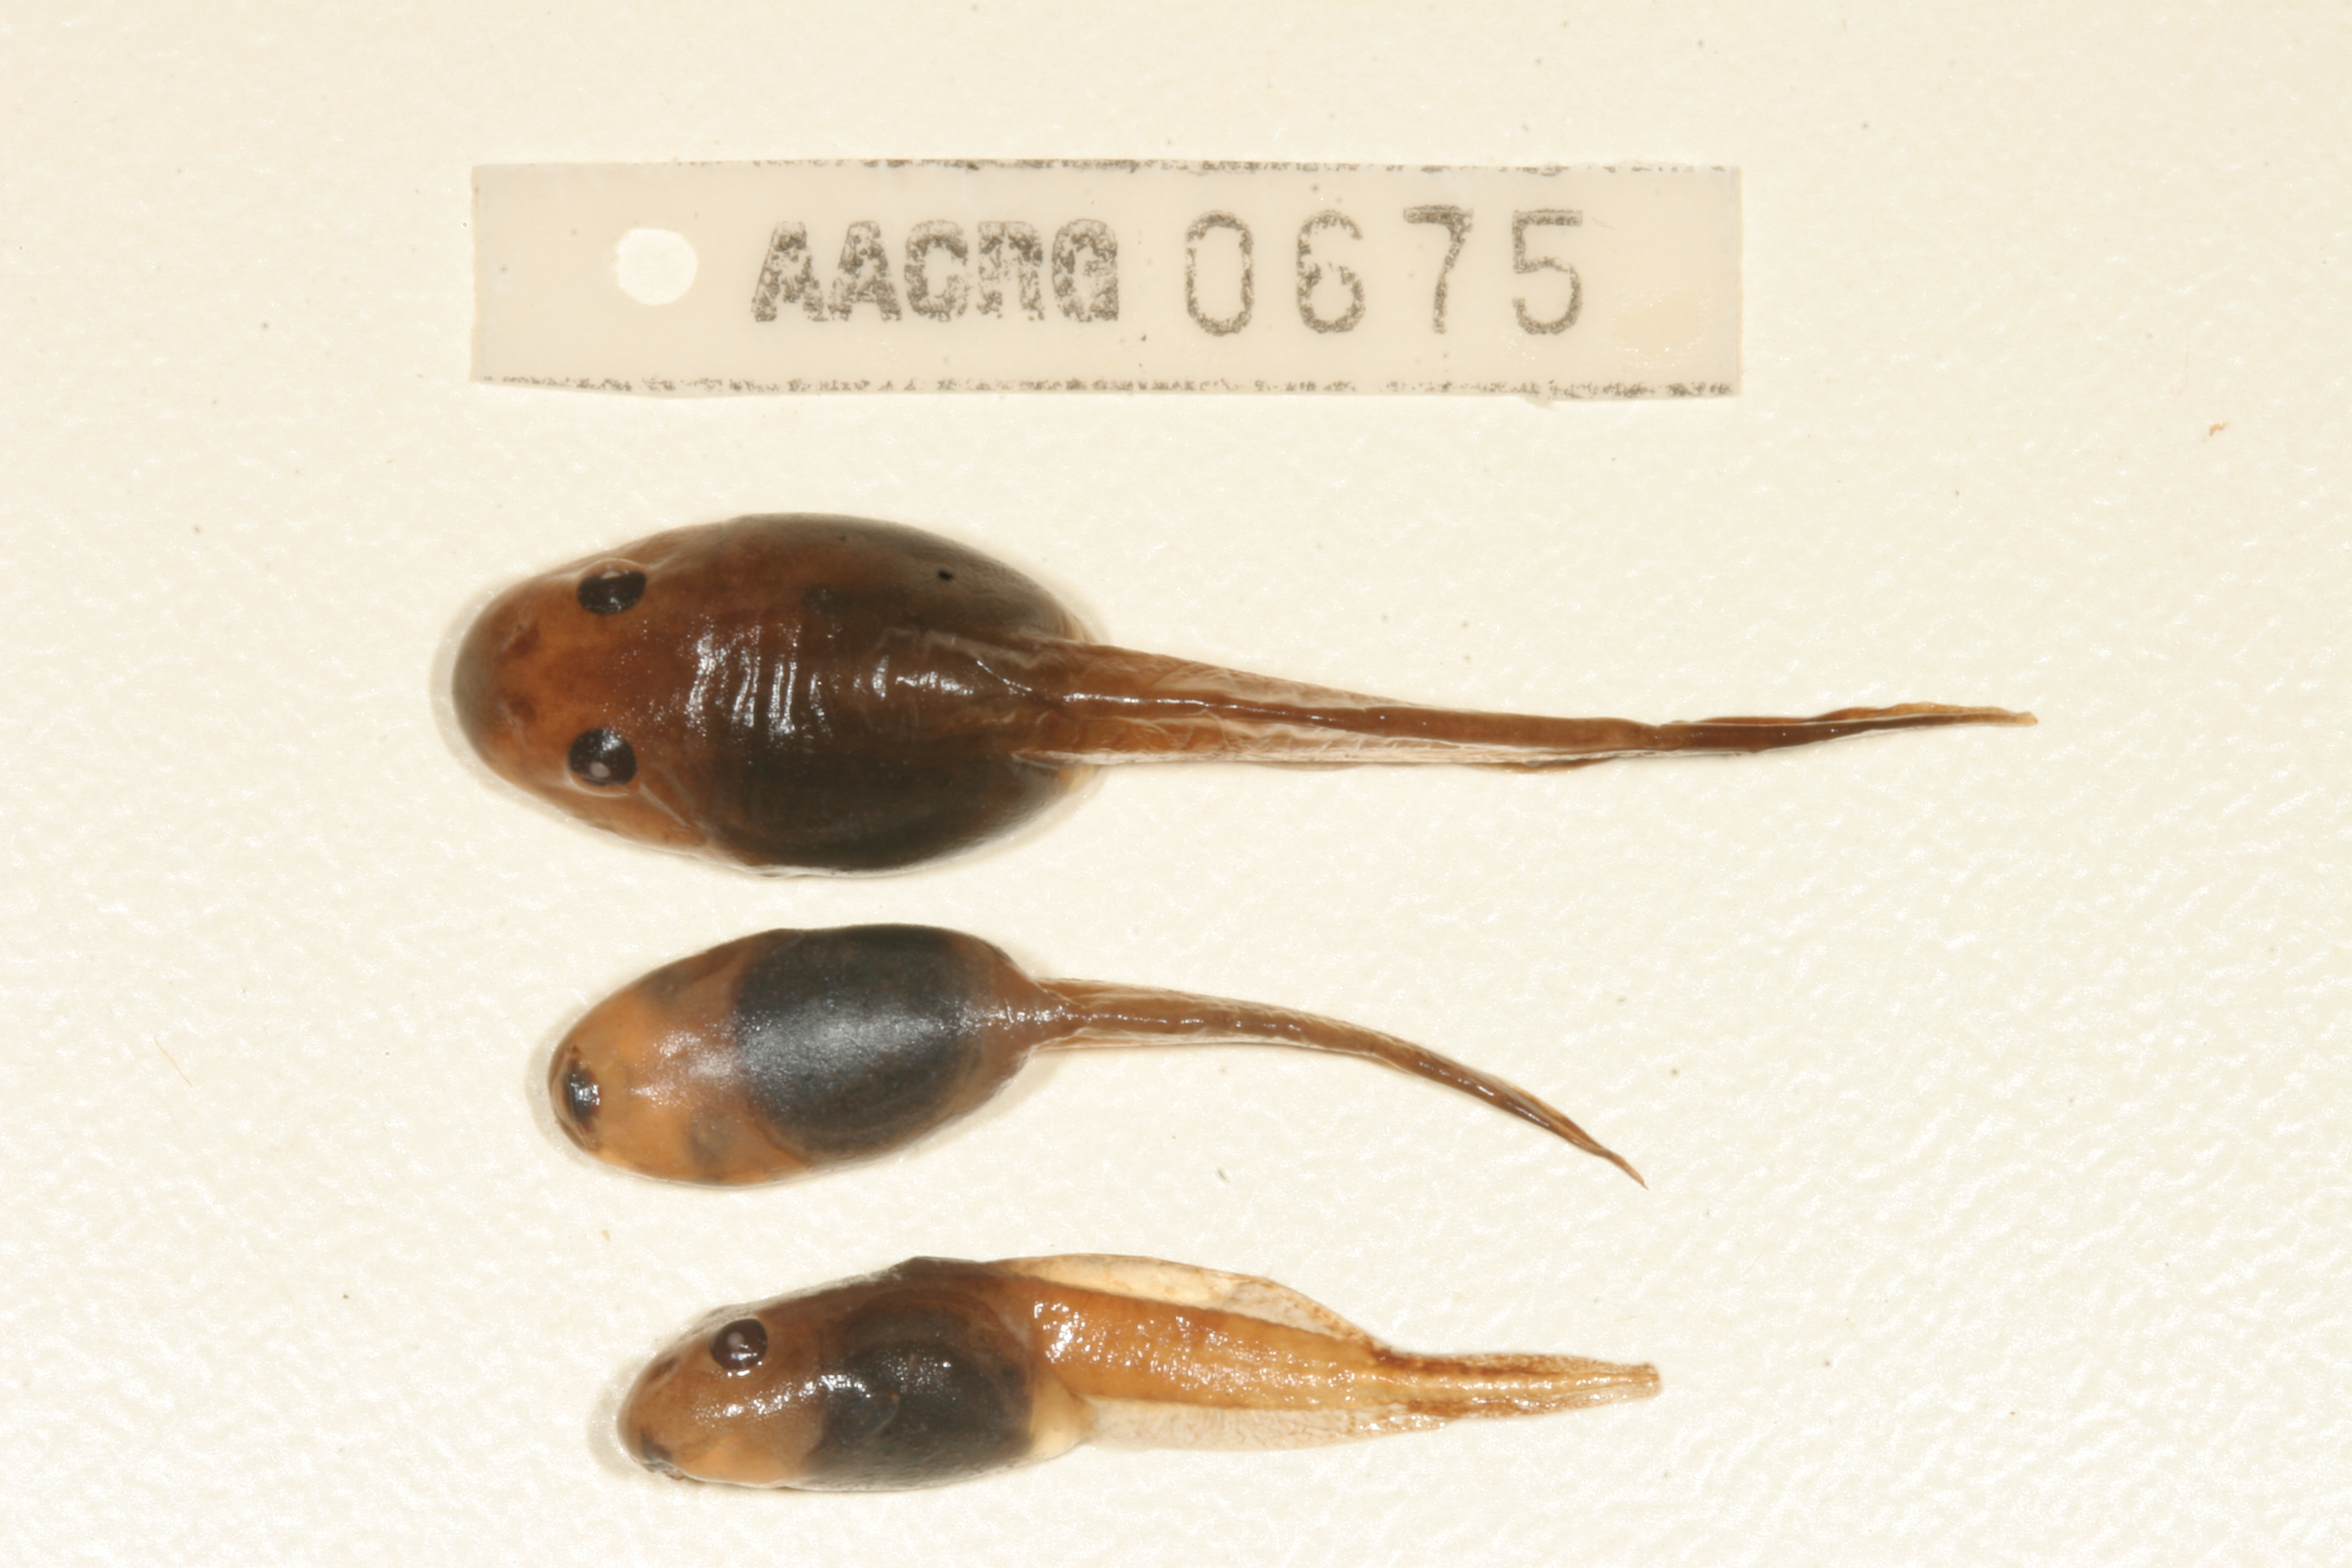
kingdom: Animalia
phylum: Chordata
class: Amphibia
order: Anura
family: Pyxicephalidae
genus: Strongylopus
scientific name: Strongylopus grayii
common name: Gray's stream frog
